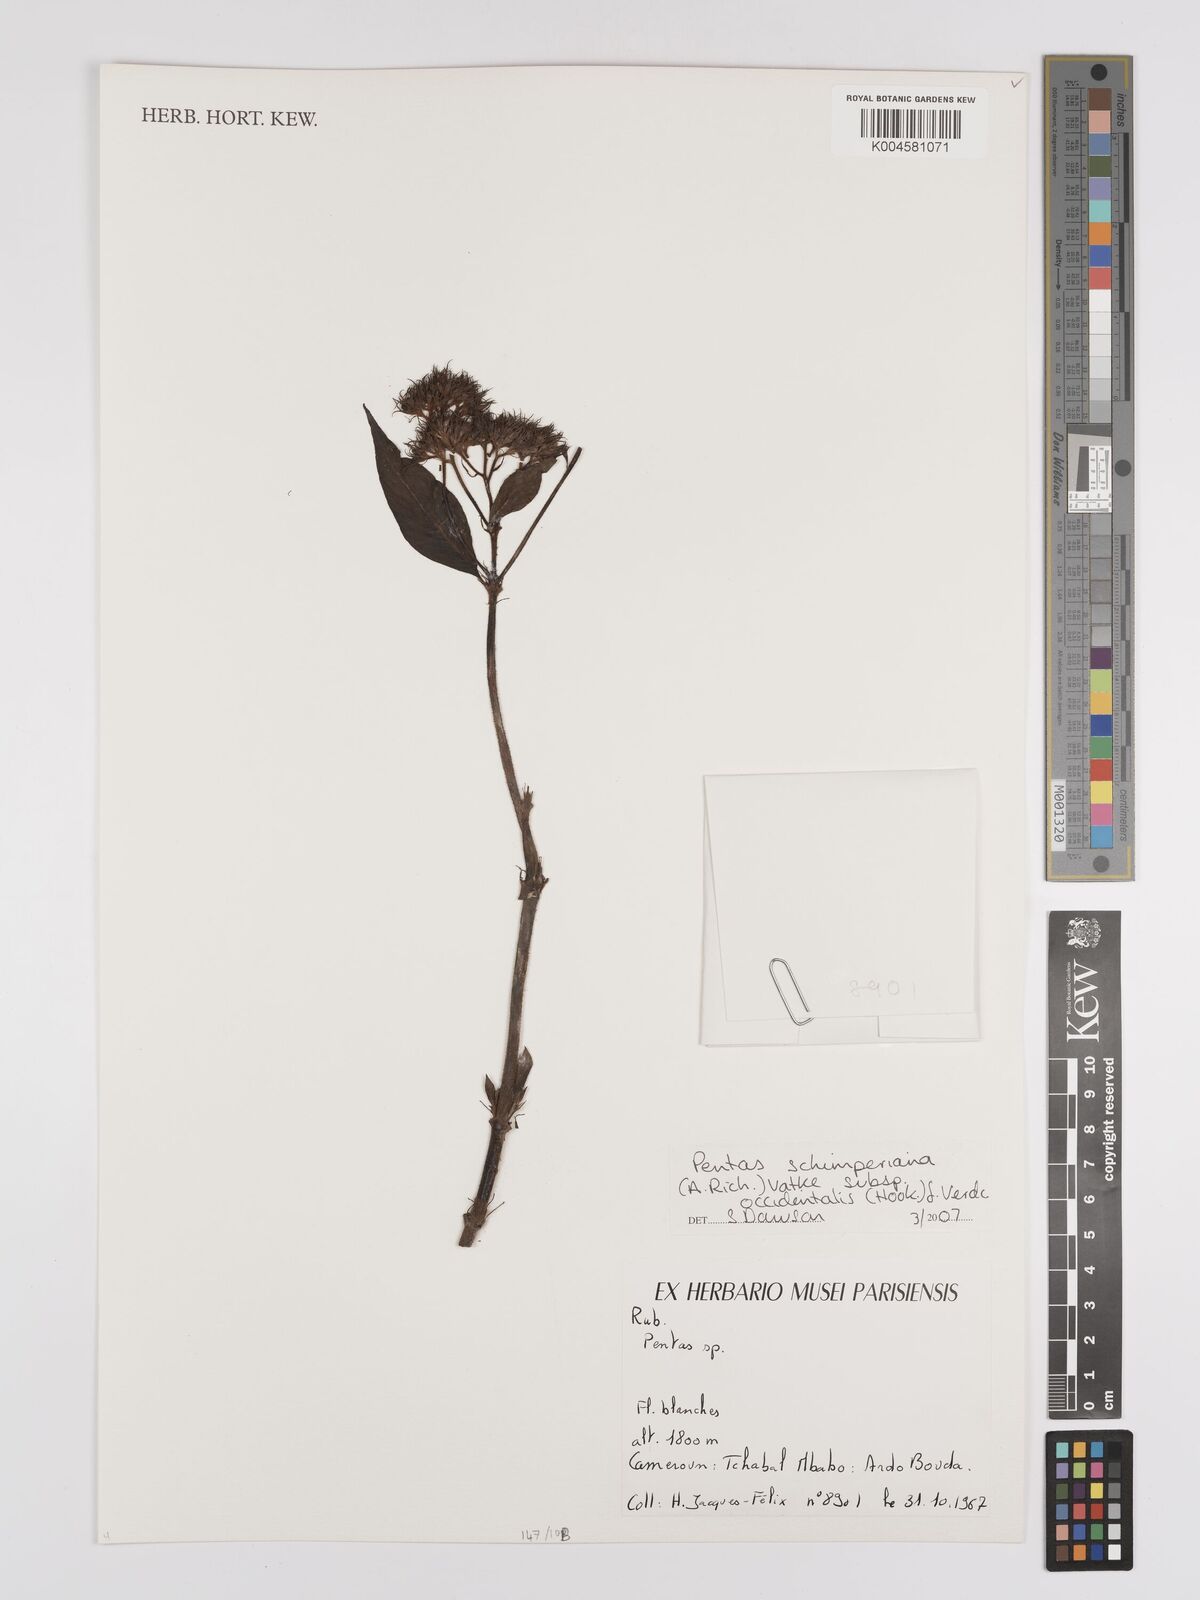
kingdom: Plantae
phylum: Tracheophyta
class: Magnoliopsida
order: Gentianales
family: Rubiaceae
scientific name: Rubiaceae
